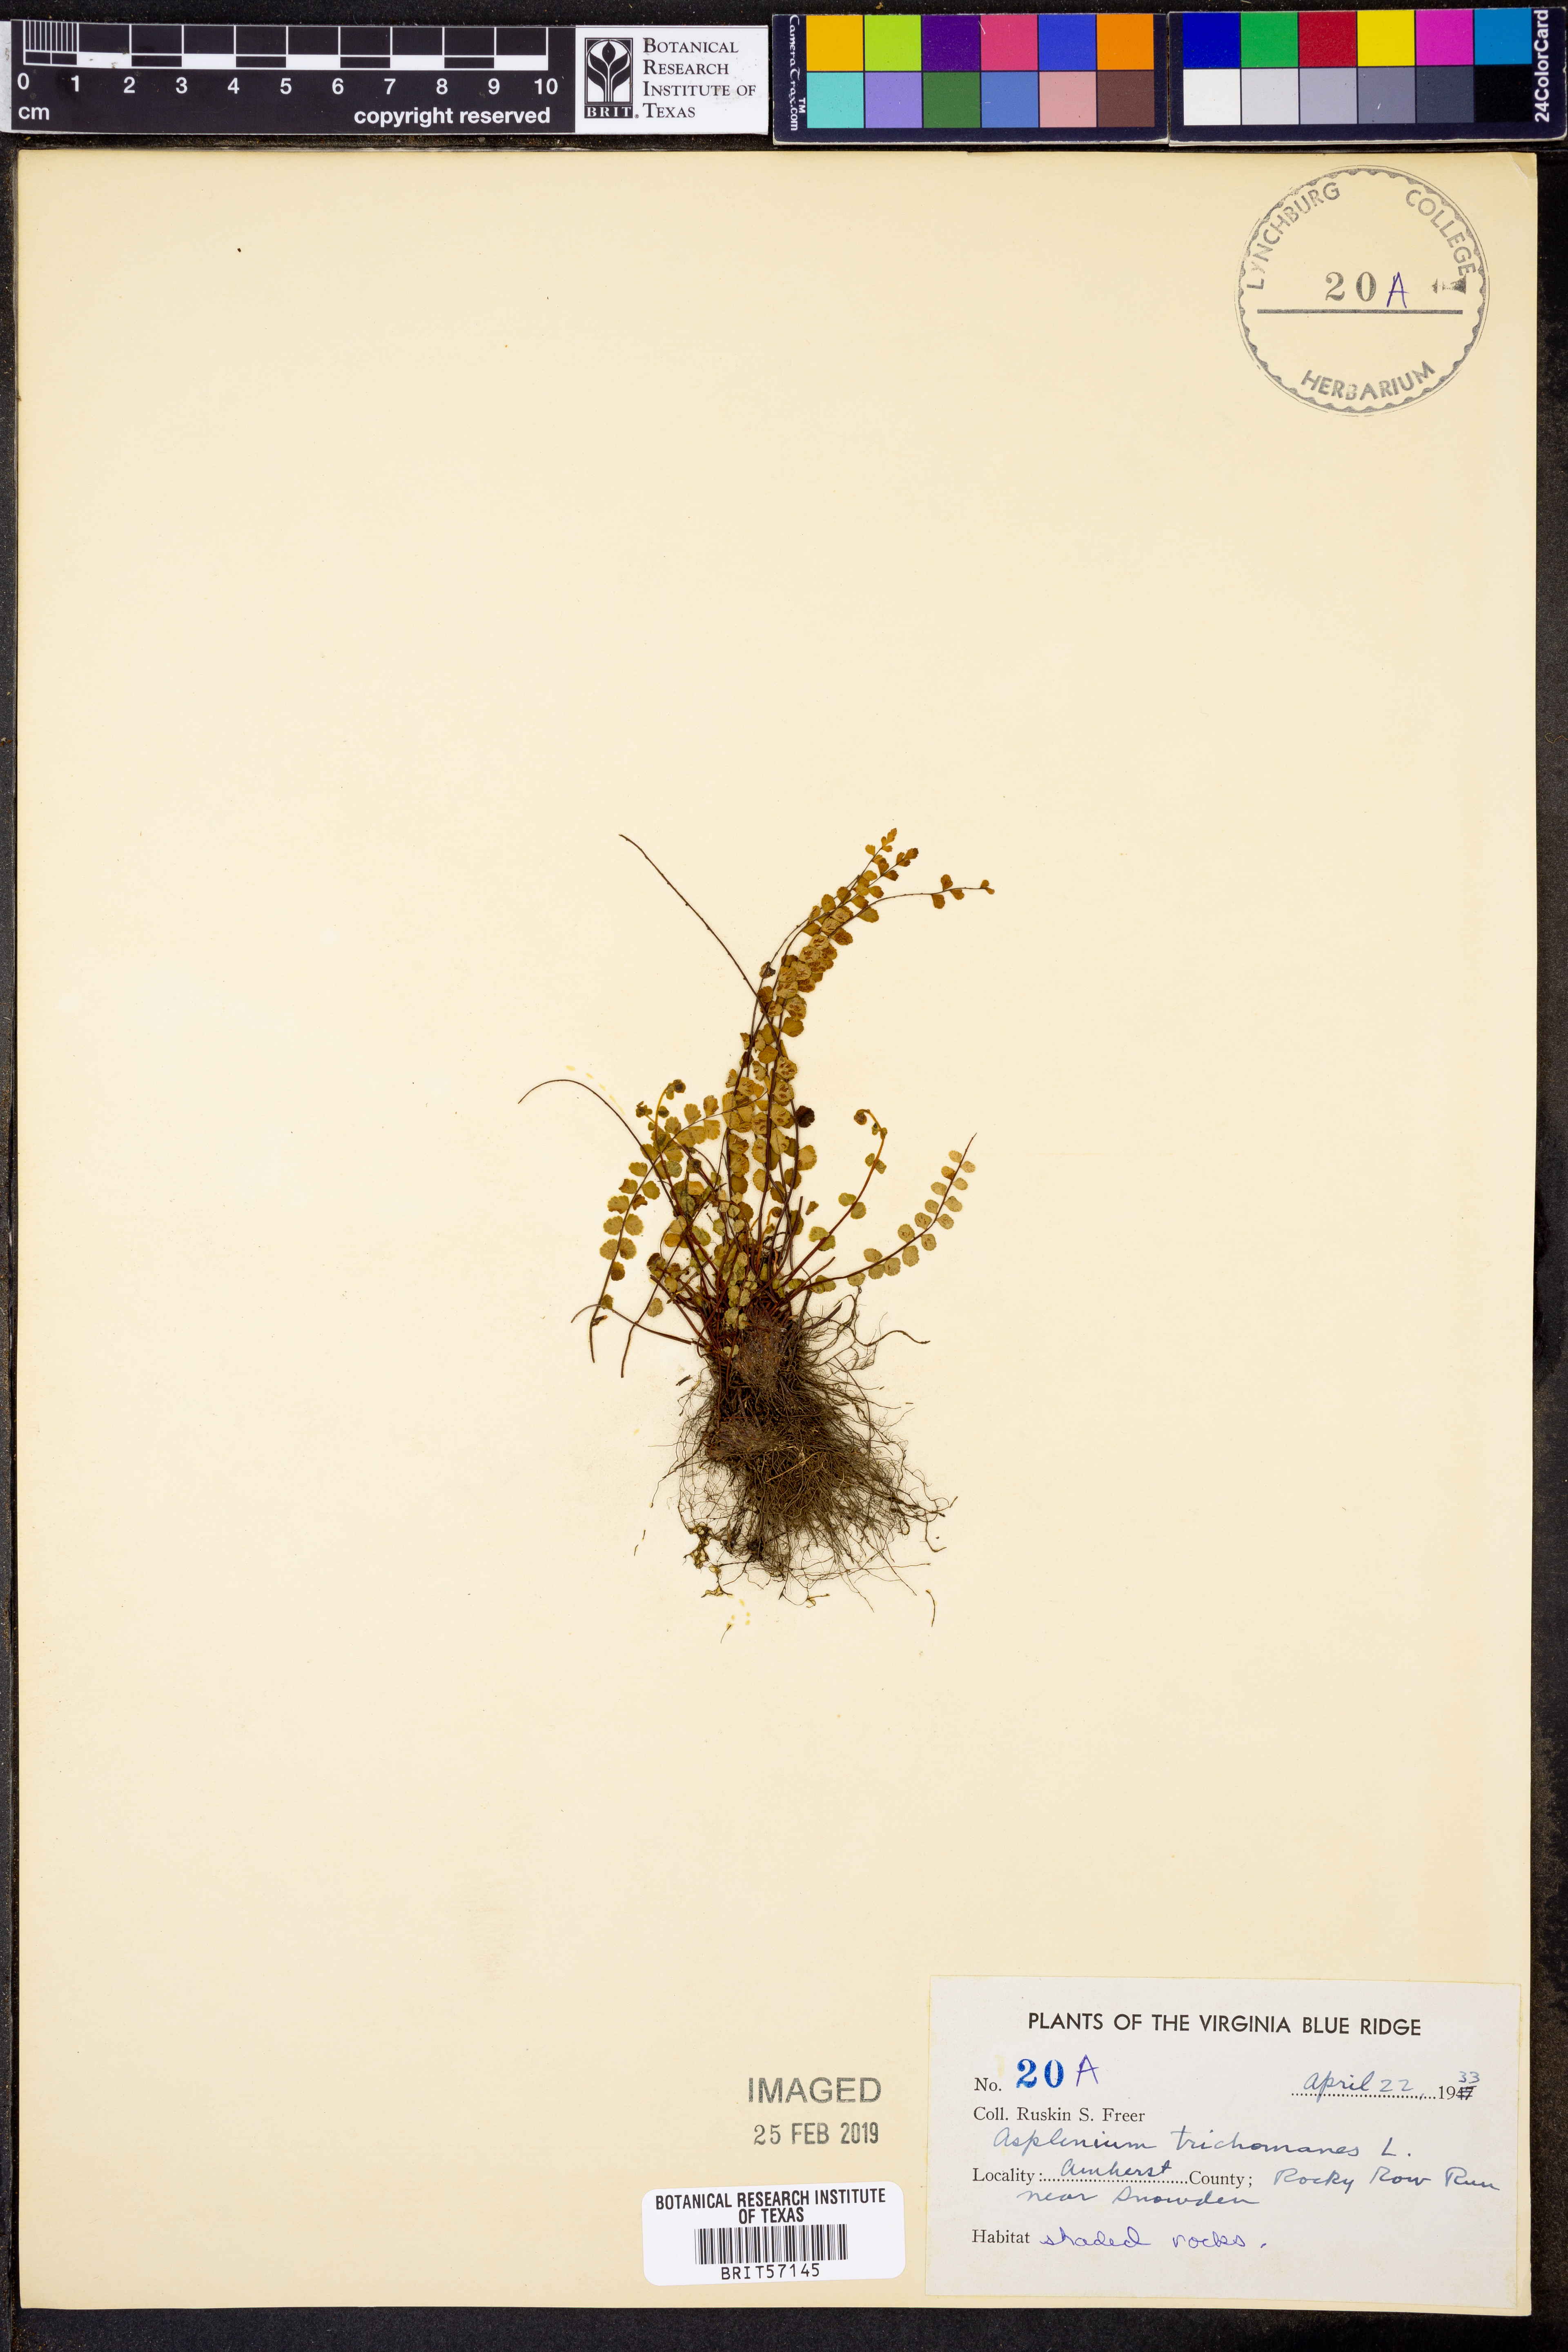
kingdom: Plantae
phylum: Tracheophyta
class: Polypodiopsida
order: Polypodiales
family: Aspleniaceae
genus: Asplenium
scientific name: Asplenium trichomanes
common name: Maidenhair spleenwort
